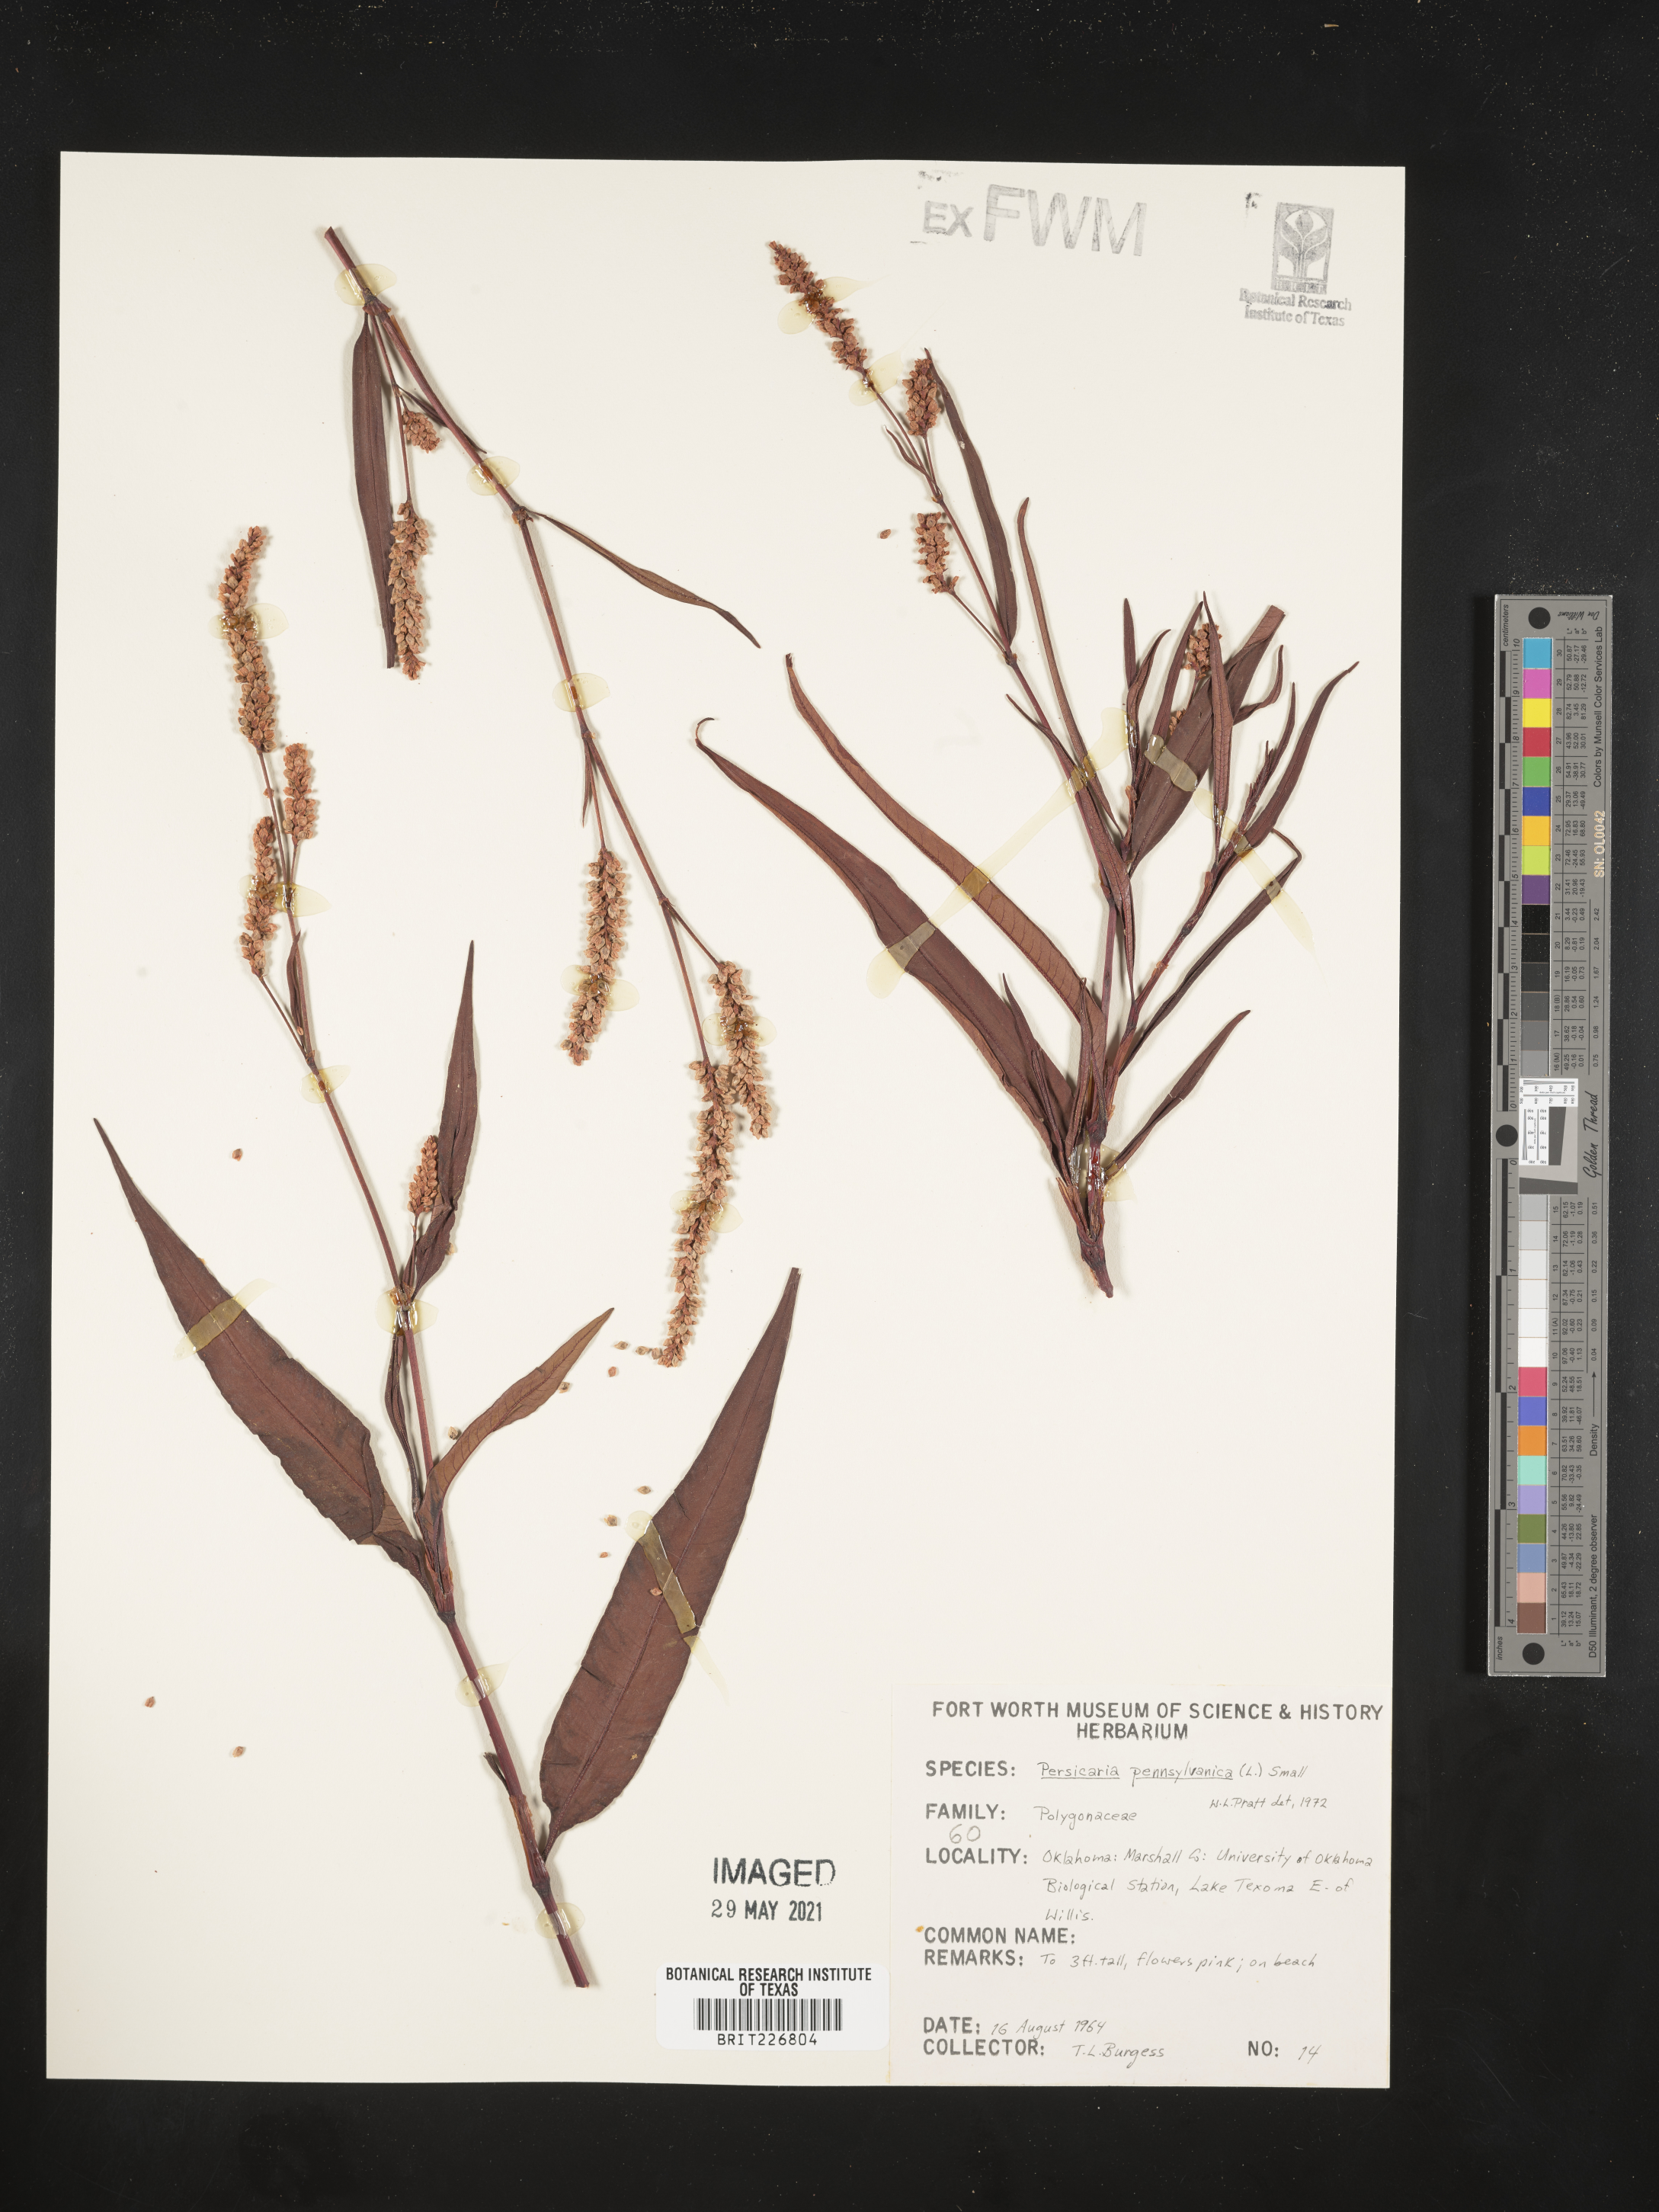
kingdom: Plantae
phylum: Tracheophyta
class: Magnoliopsida
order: Caryophyllales
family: Polygonaceae
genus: Persicaria
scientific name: Persicaria pensylvanica
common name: Pinkweed
